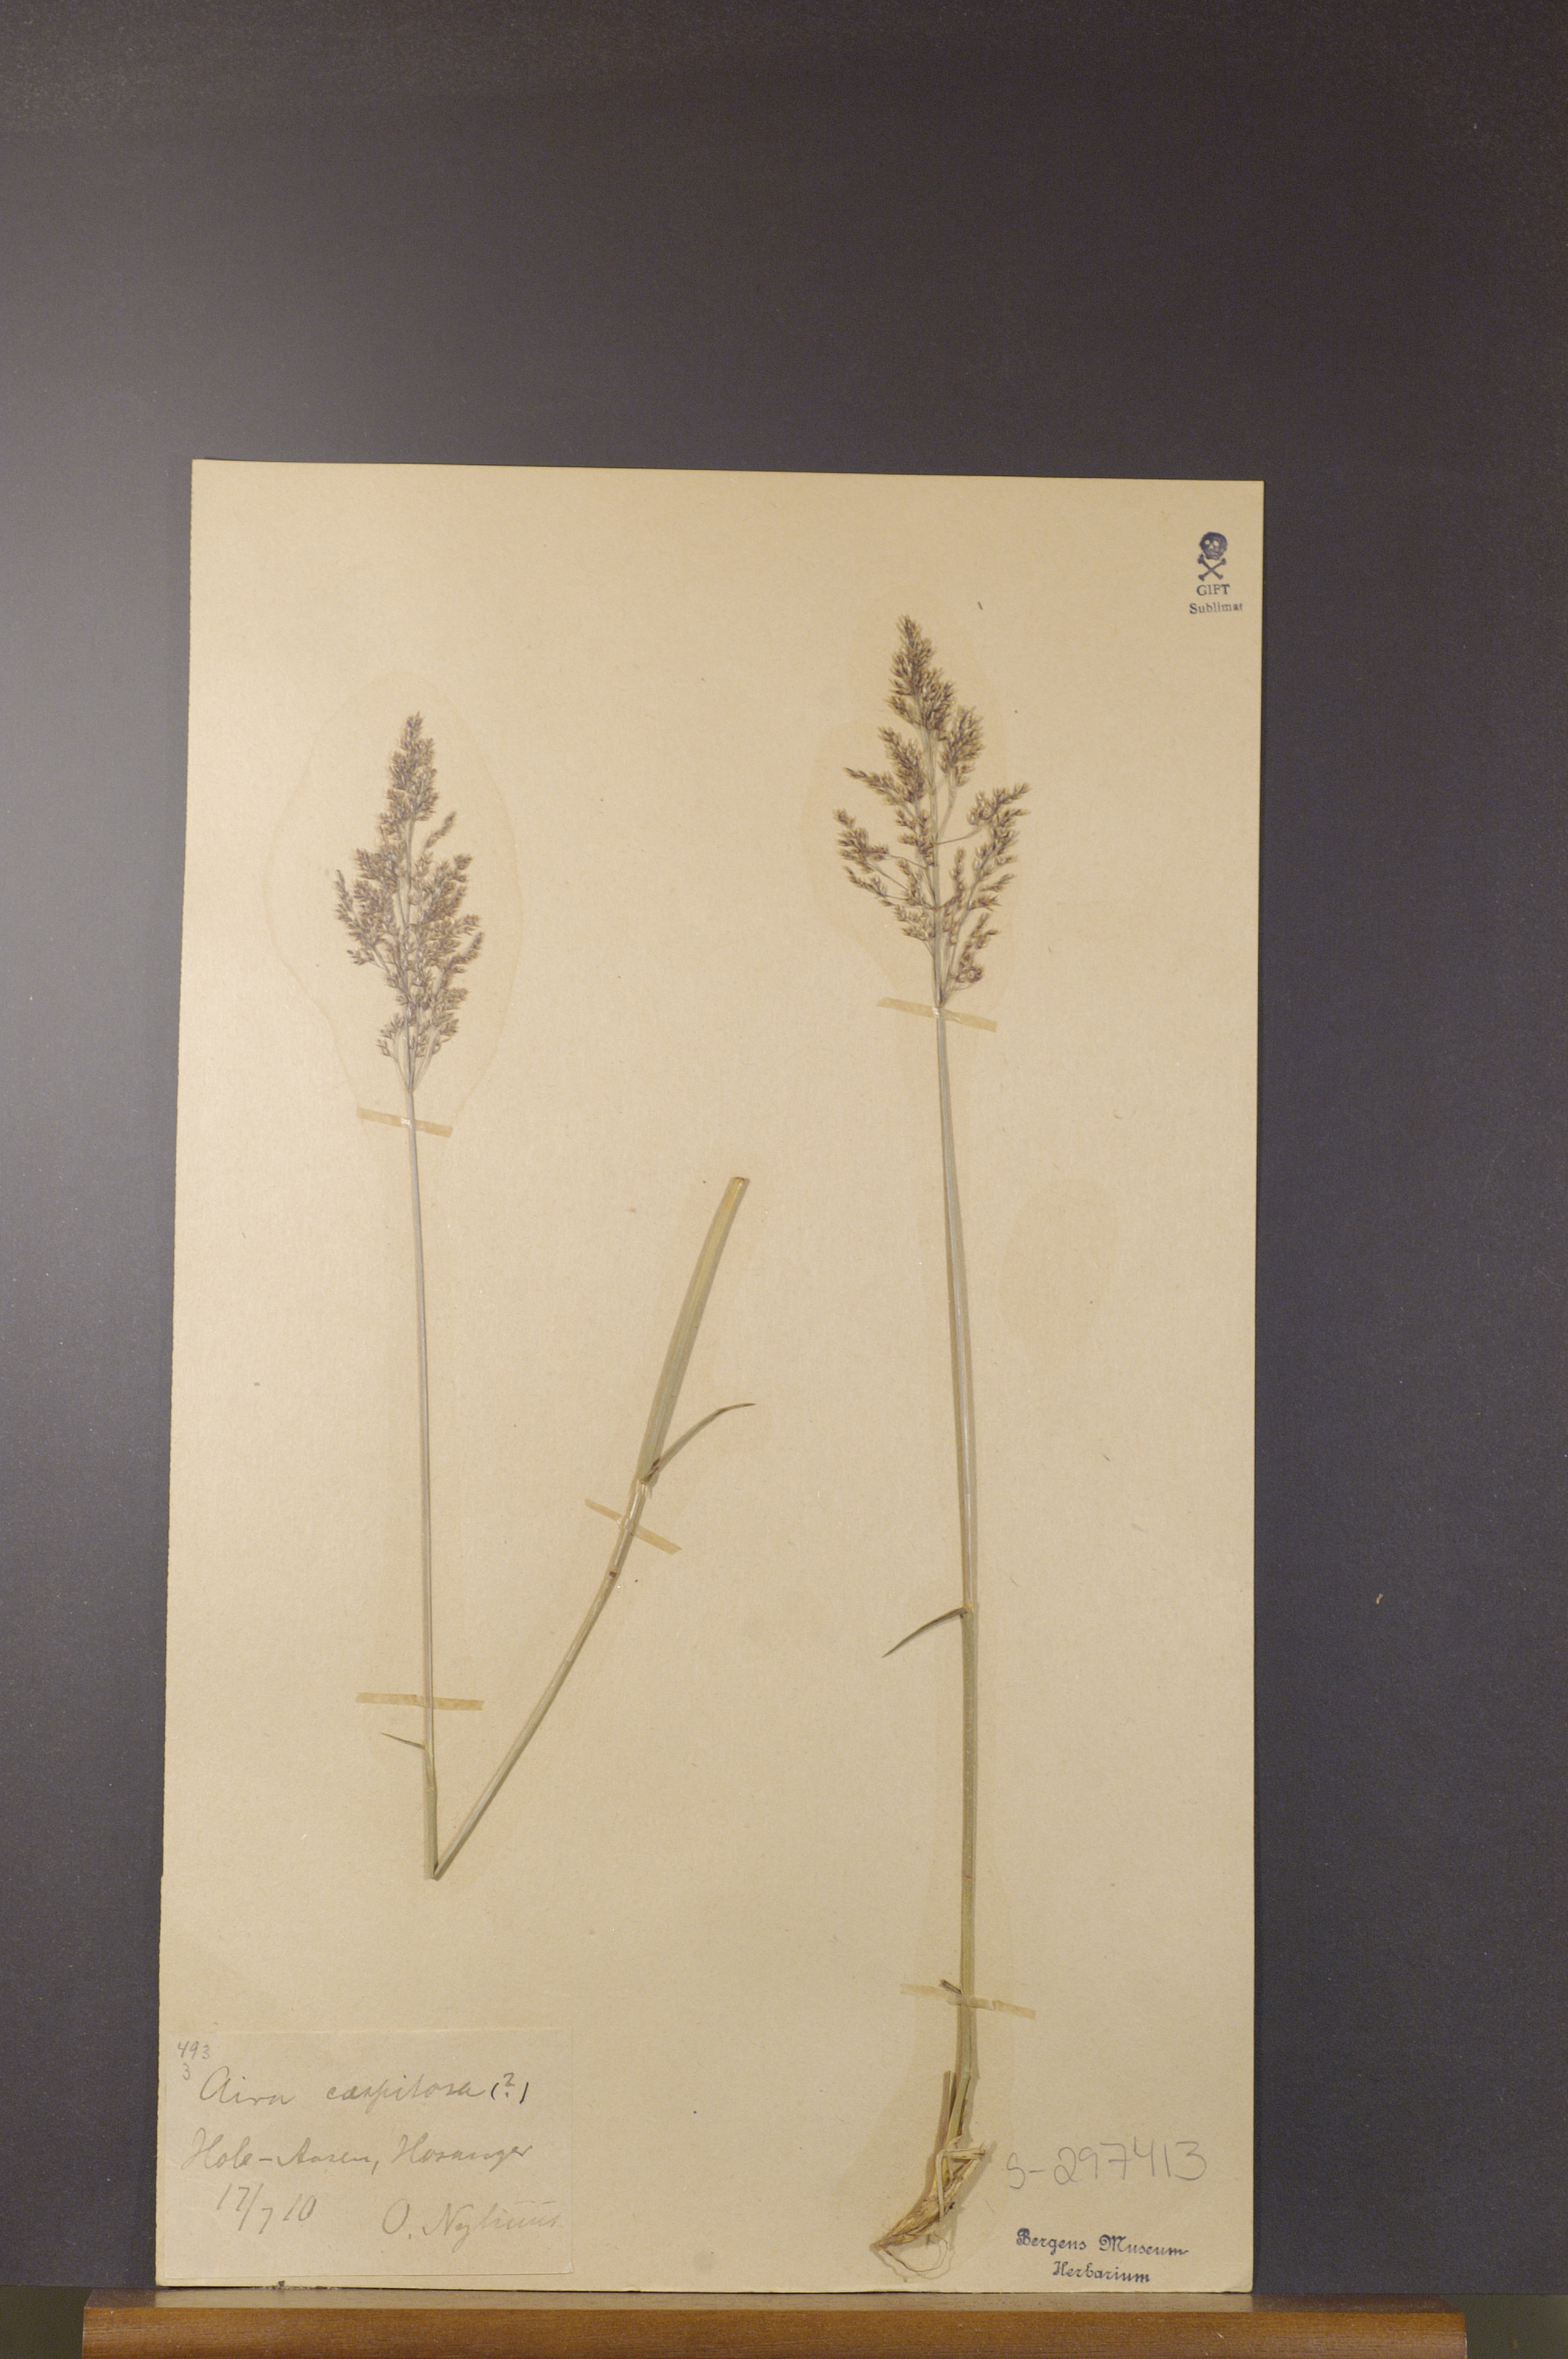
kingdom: Plantae
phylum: Tracheophyta
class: Liliopsida
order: Poales
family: Poaceae
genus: Deschampsia
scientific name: Deschampsia cespitosa
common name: Tufted hair-grass
